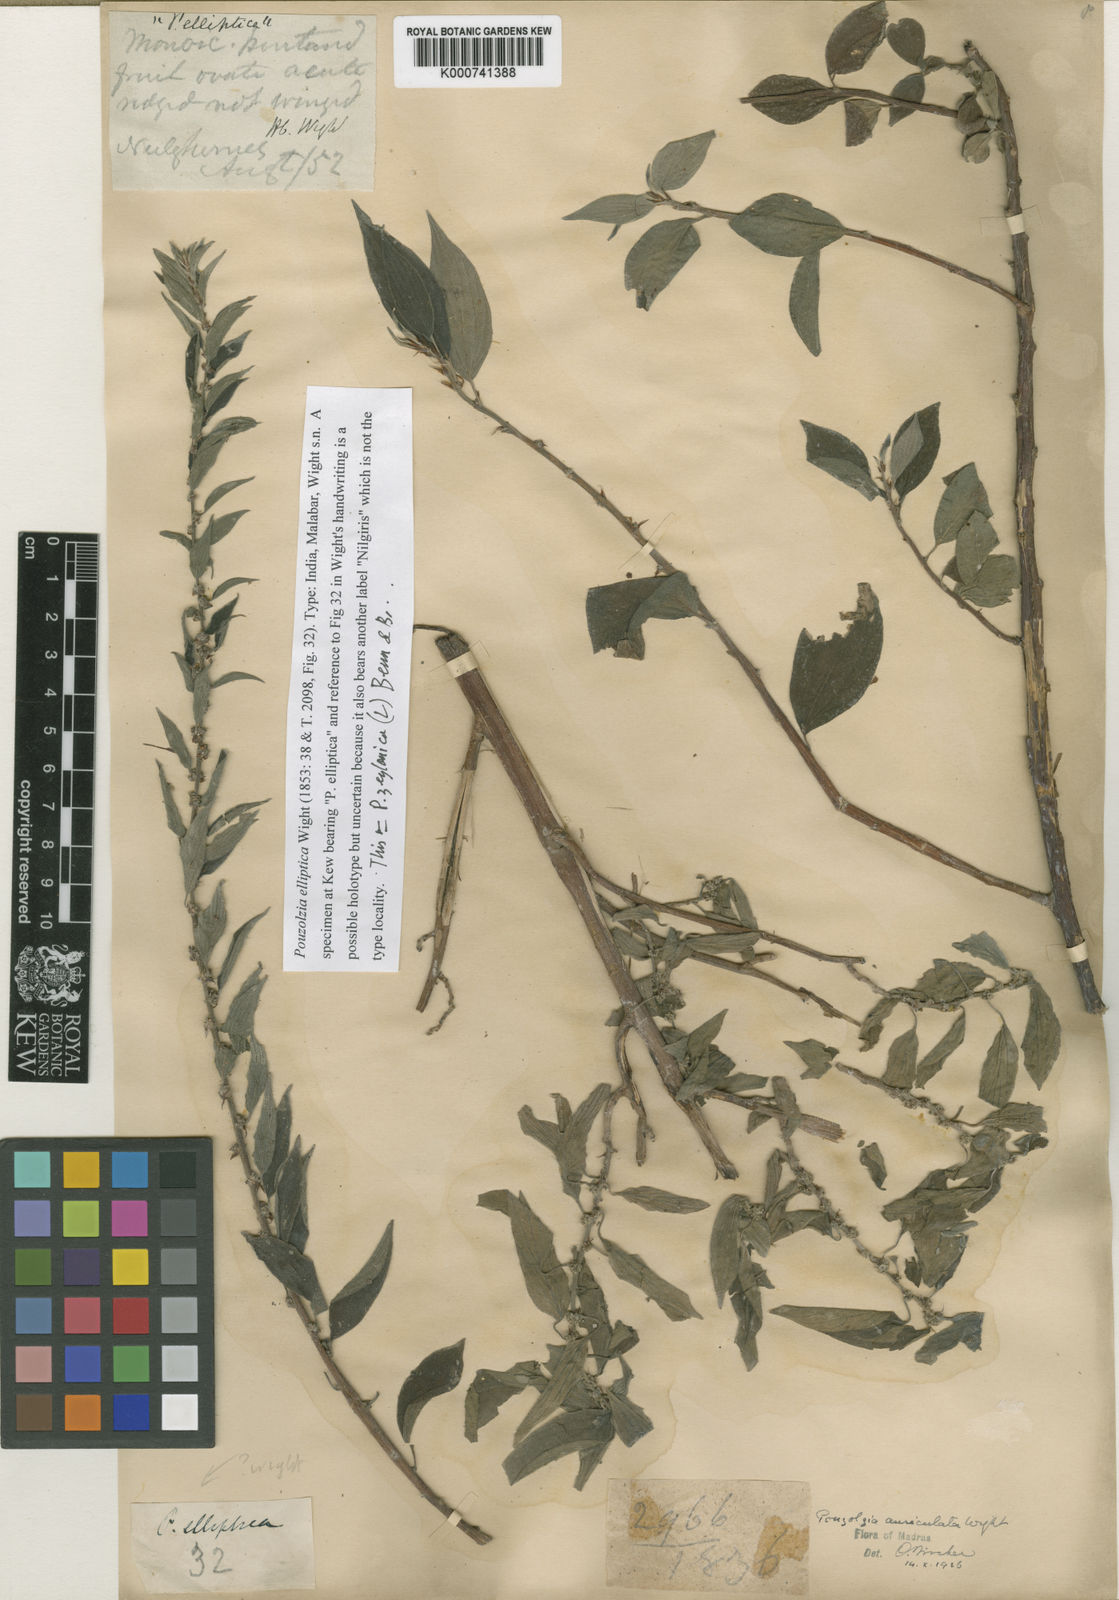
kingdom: Plantae
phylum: Tracheophyta
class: Magnoliopsida
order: Rosales
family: Urticaceae
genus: Pouzolzia
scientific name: Pouzolzia zeylanica
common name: Graceful pouzolzsbush
